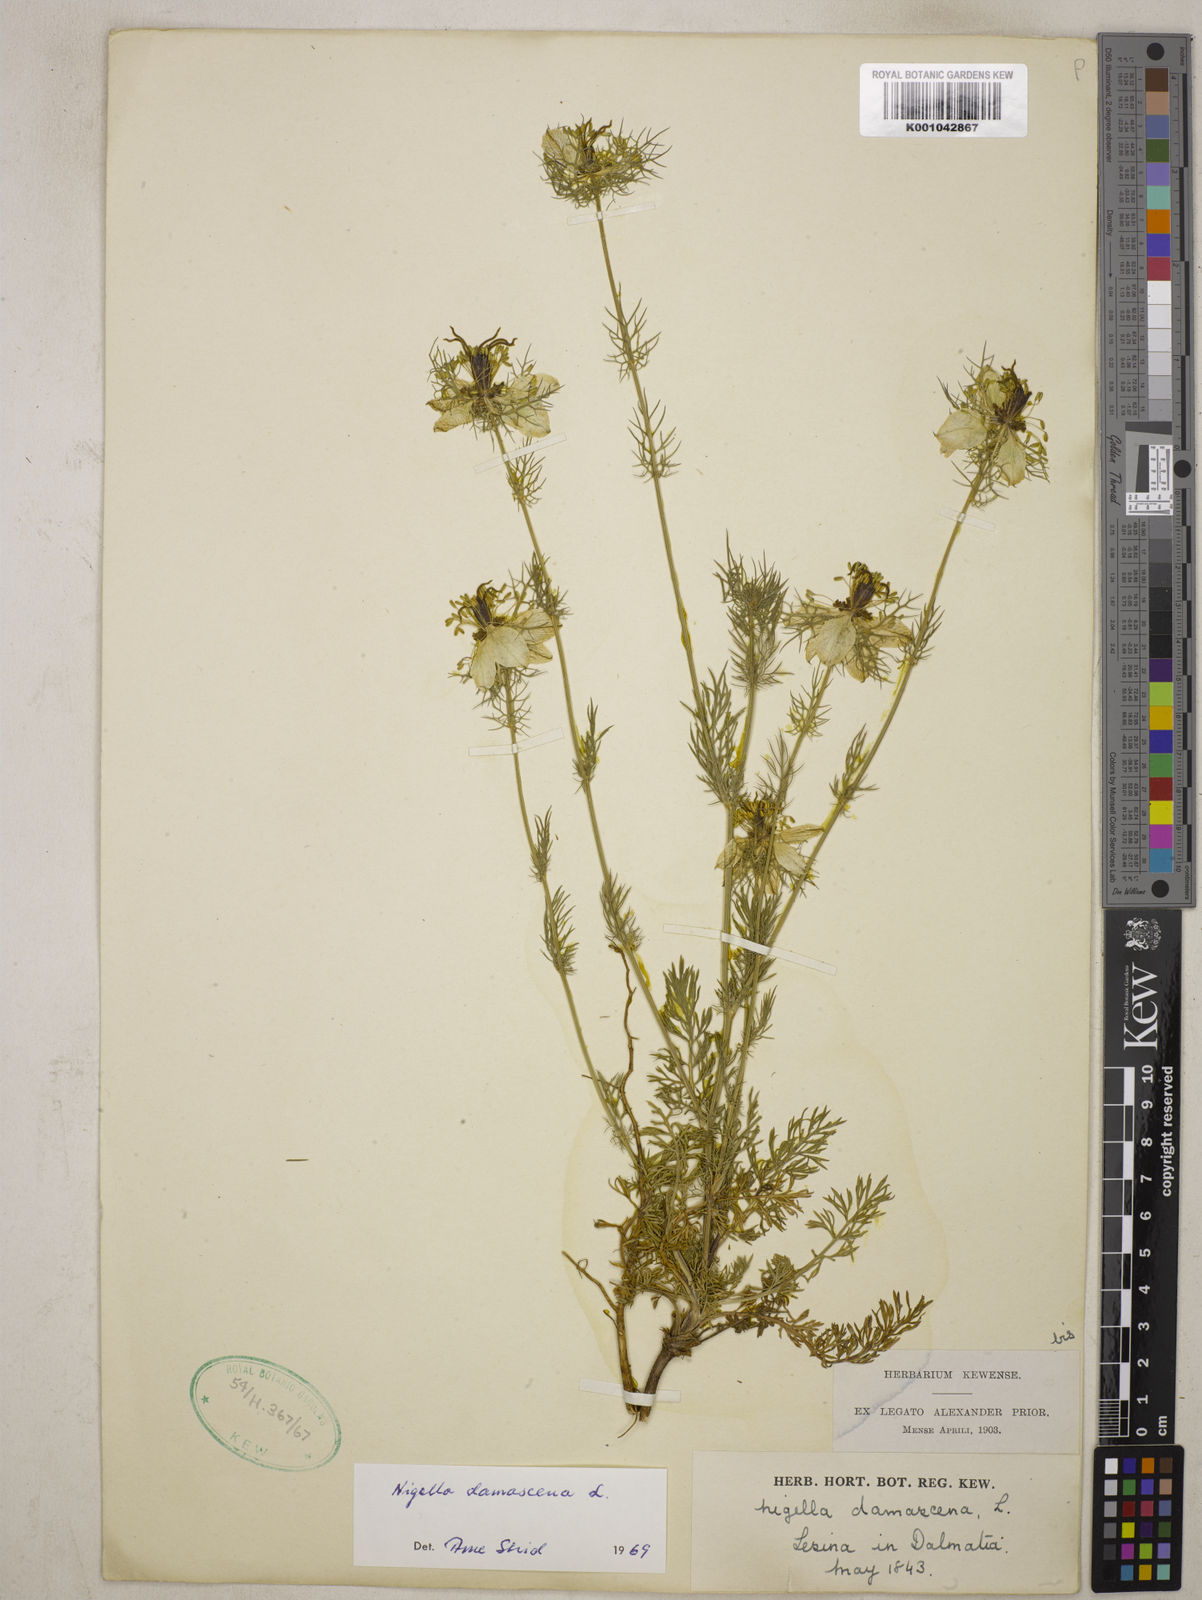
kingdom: Plantae
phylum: Tracheophyta
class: Magnoliopsida
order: Ranunculales
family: Ranunculaceae
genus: Nigella
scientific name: Nigella damascena
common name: Love-in-a-mist
